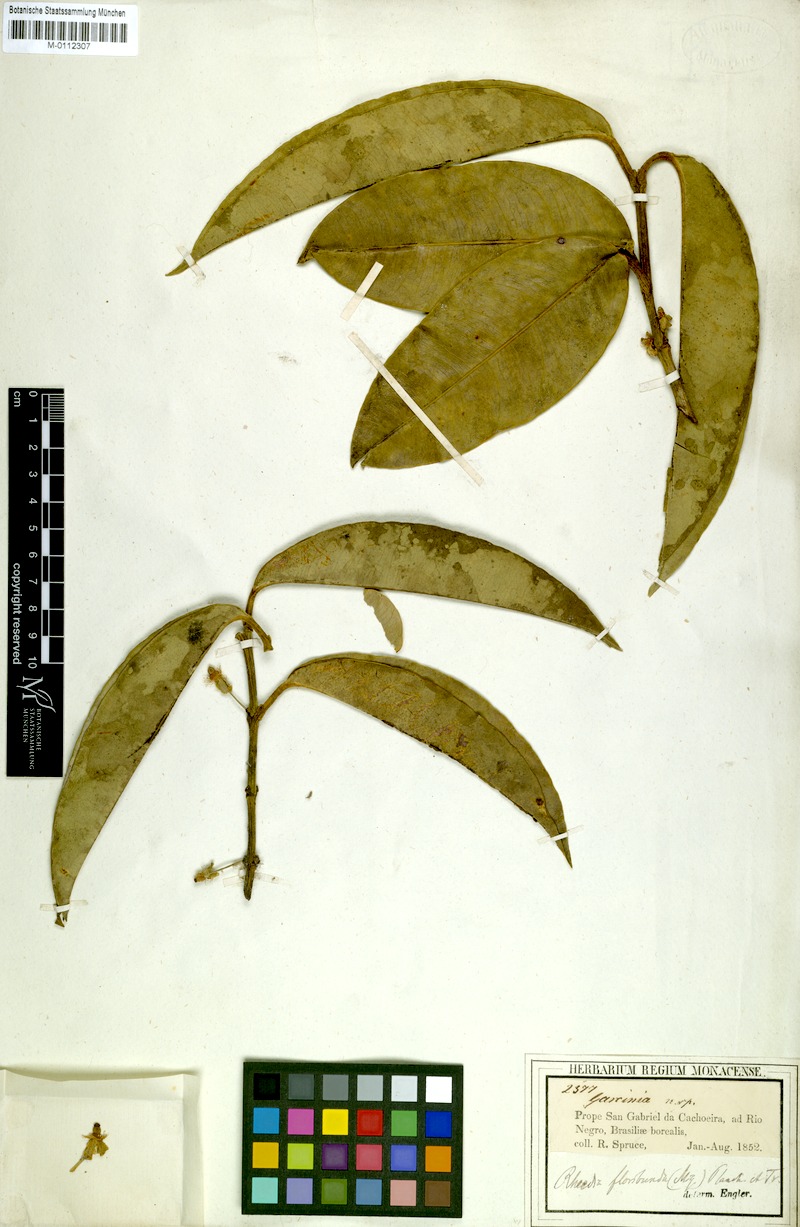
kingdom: Plantae
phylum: Tracheophyta
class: Magnoliopsida
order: Malpighiales
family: Clusiaceae
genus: Garcinia
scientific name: Garcinia madruno
